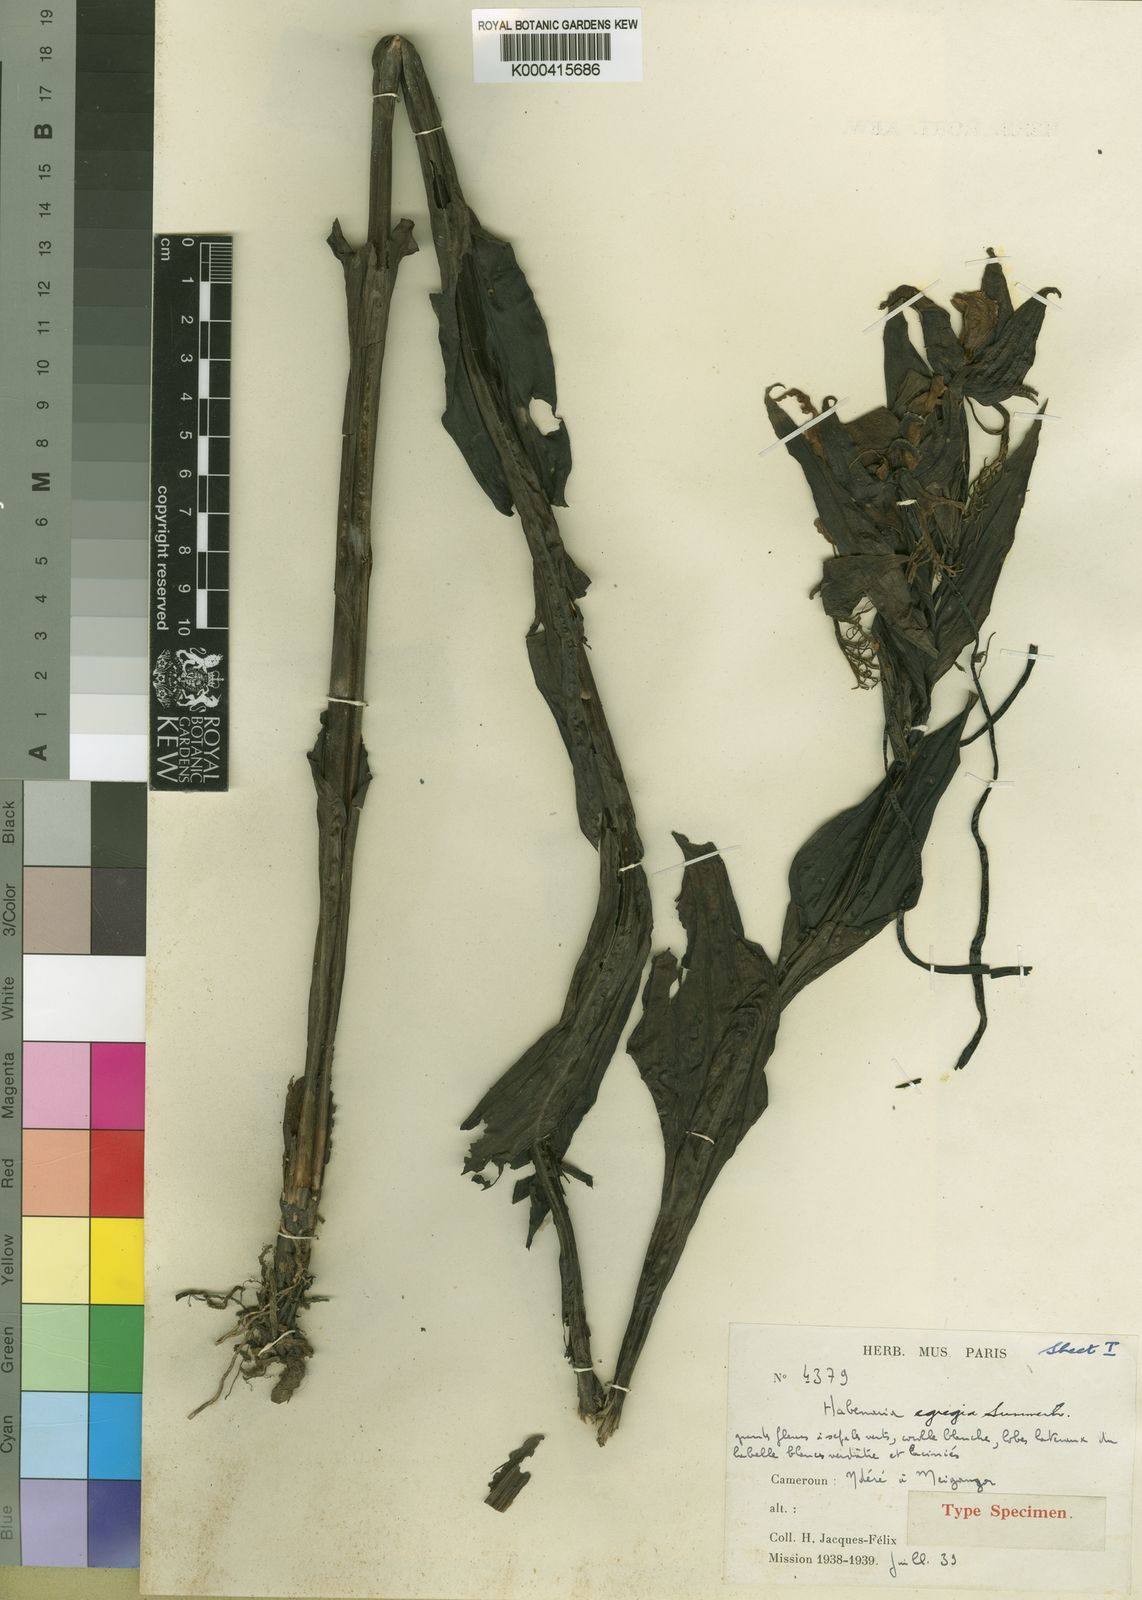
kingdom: Plantae
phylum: Tracheophyta
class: Liliopsida
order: Asparagales
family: Orchidaceae
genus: Habenaria
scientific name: Habenaria egregia
